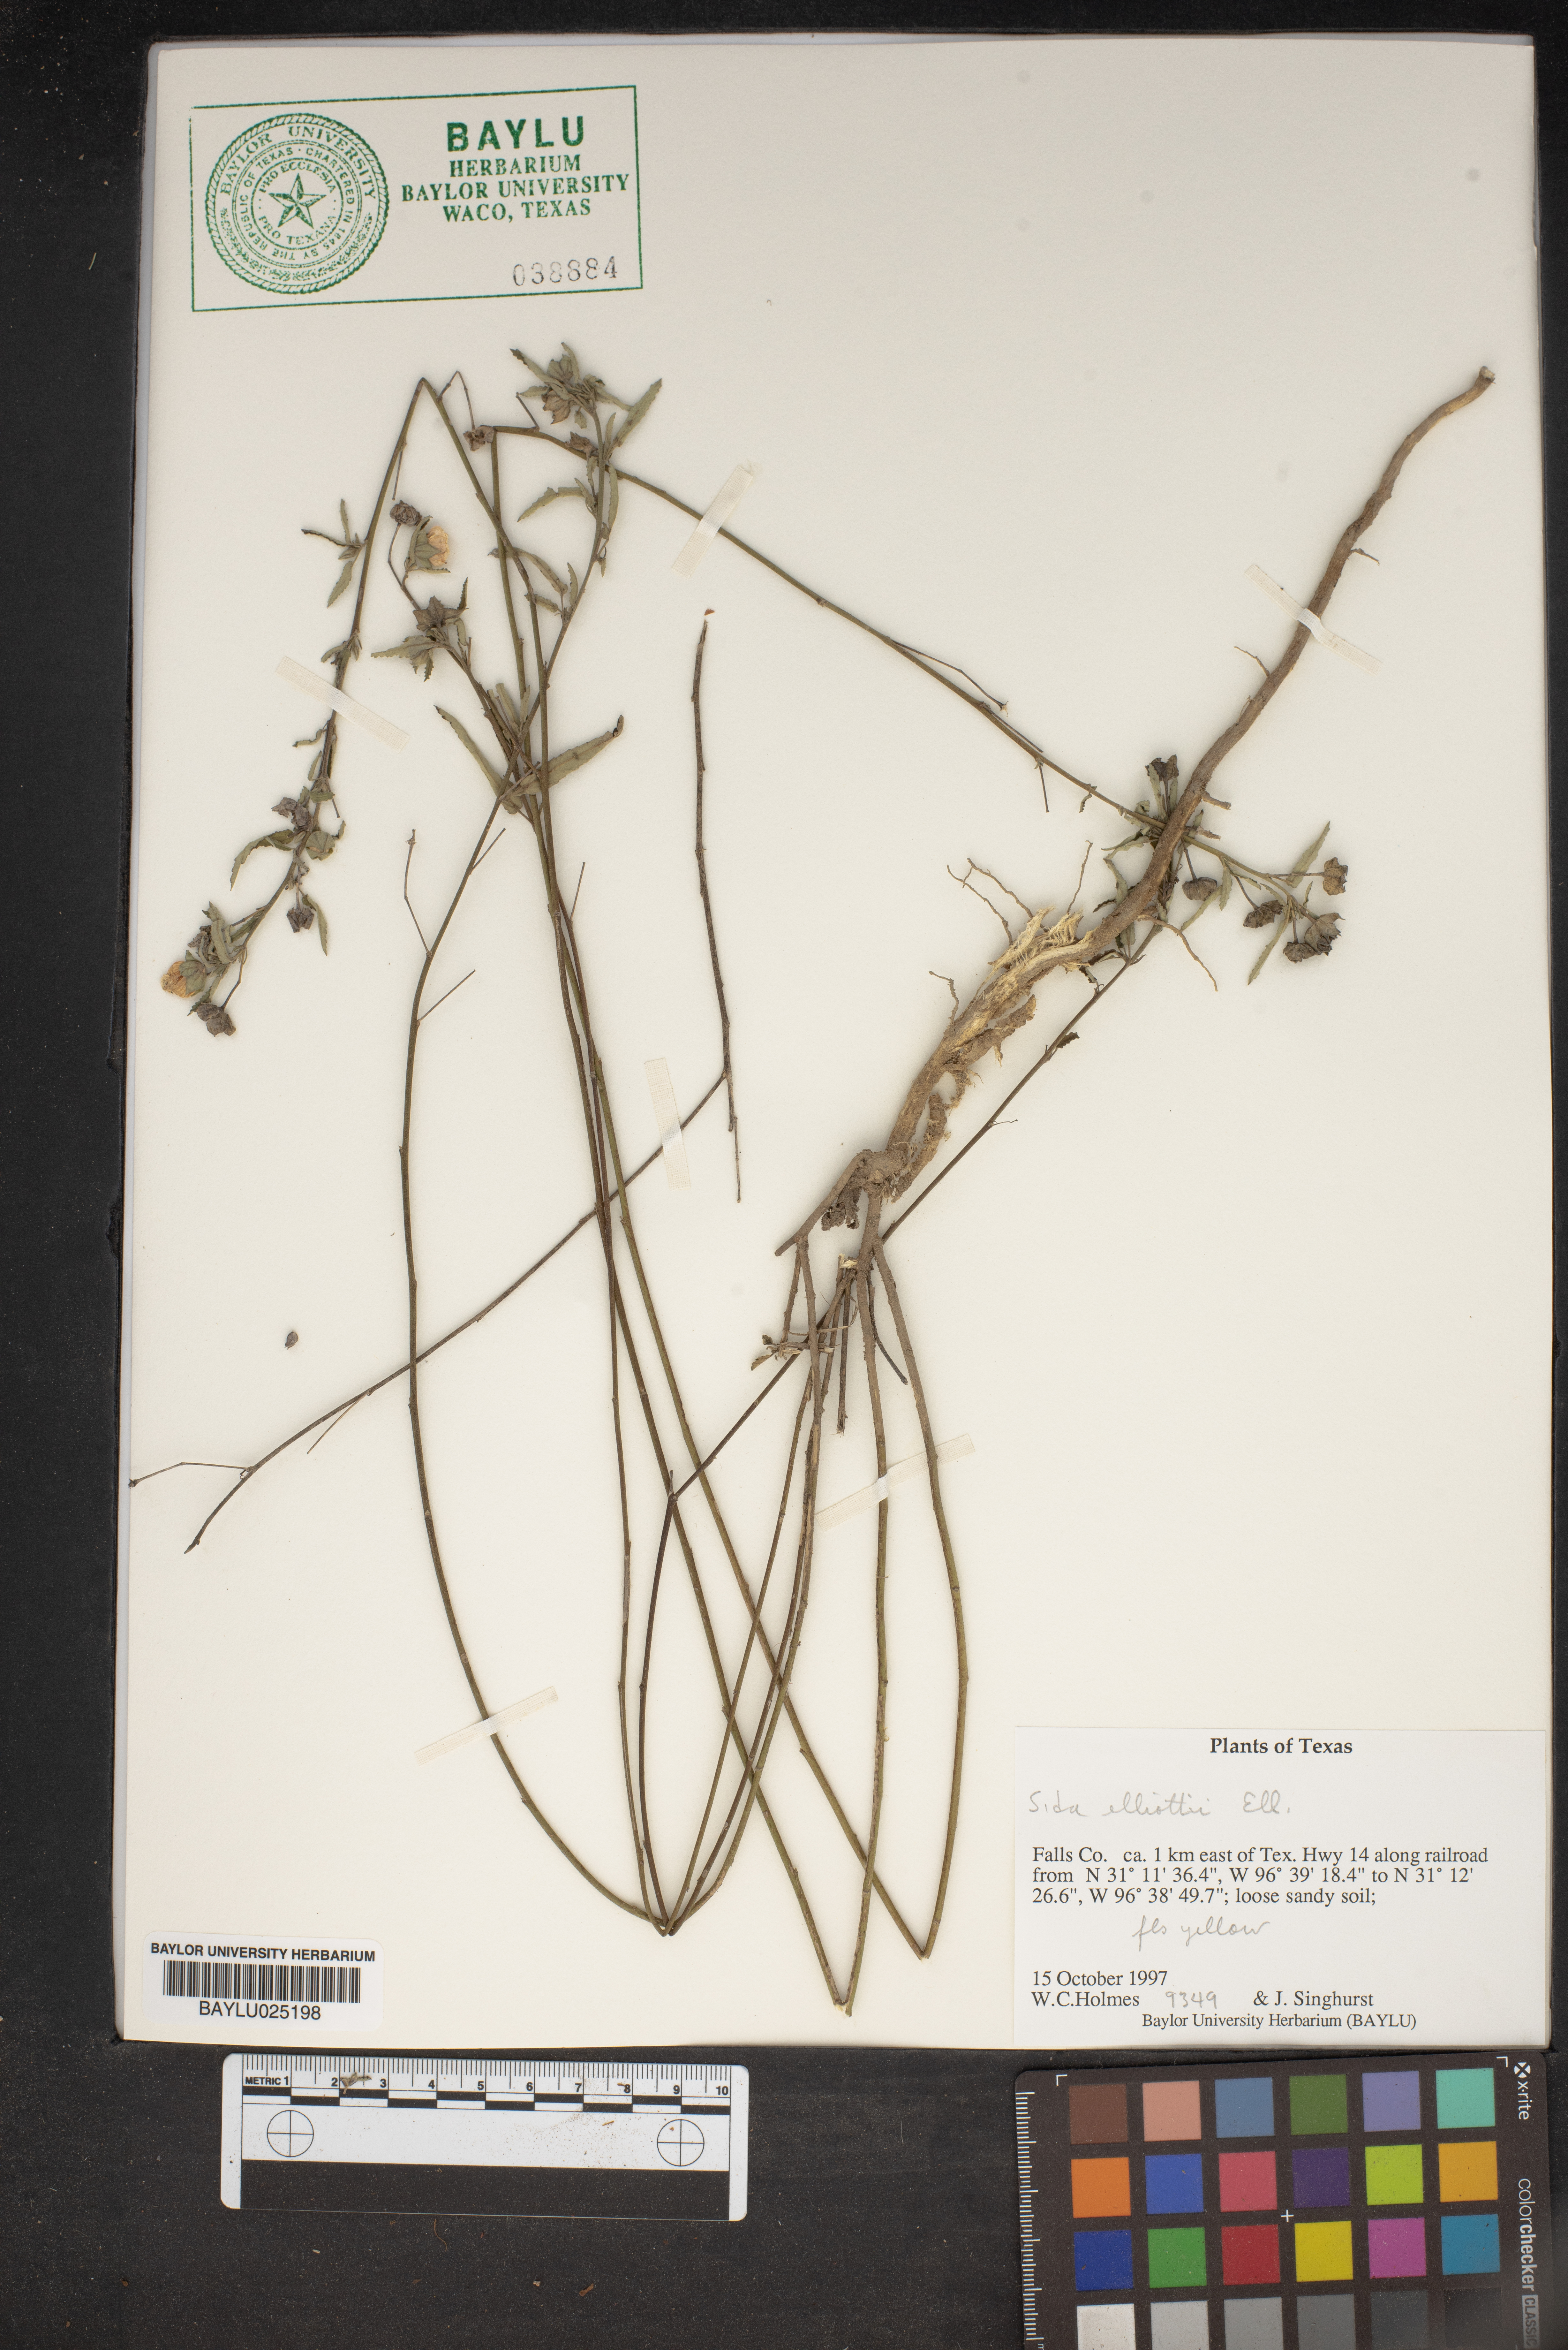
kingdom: Plantae
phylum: Tracheophyta
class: Magnoliopsida
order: Malvales
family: Malvaceae
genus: Sida
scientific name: Sida elliottii
